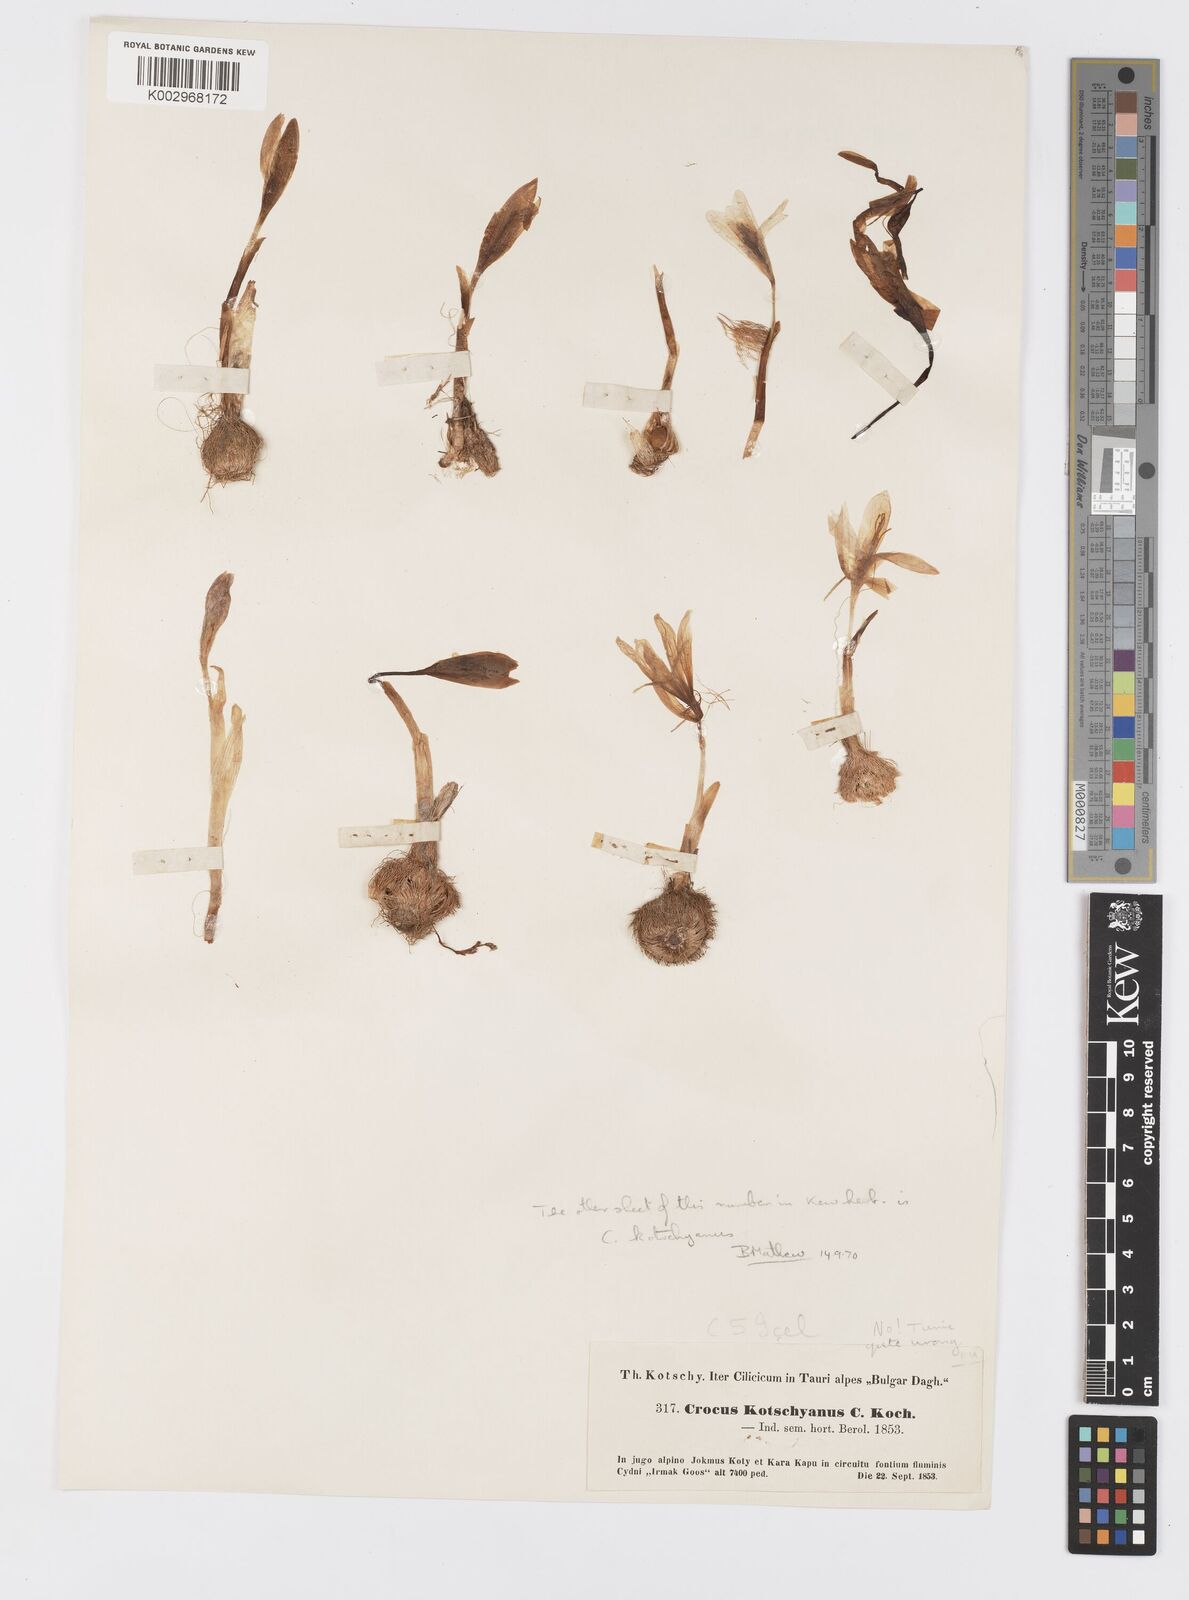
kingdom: Plantae
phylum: Tracheophyta
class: Liliopsida
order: Asparagales
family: Iridaceae
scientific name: Iridaceae
